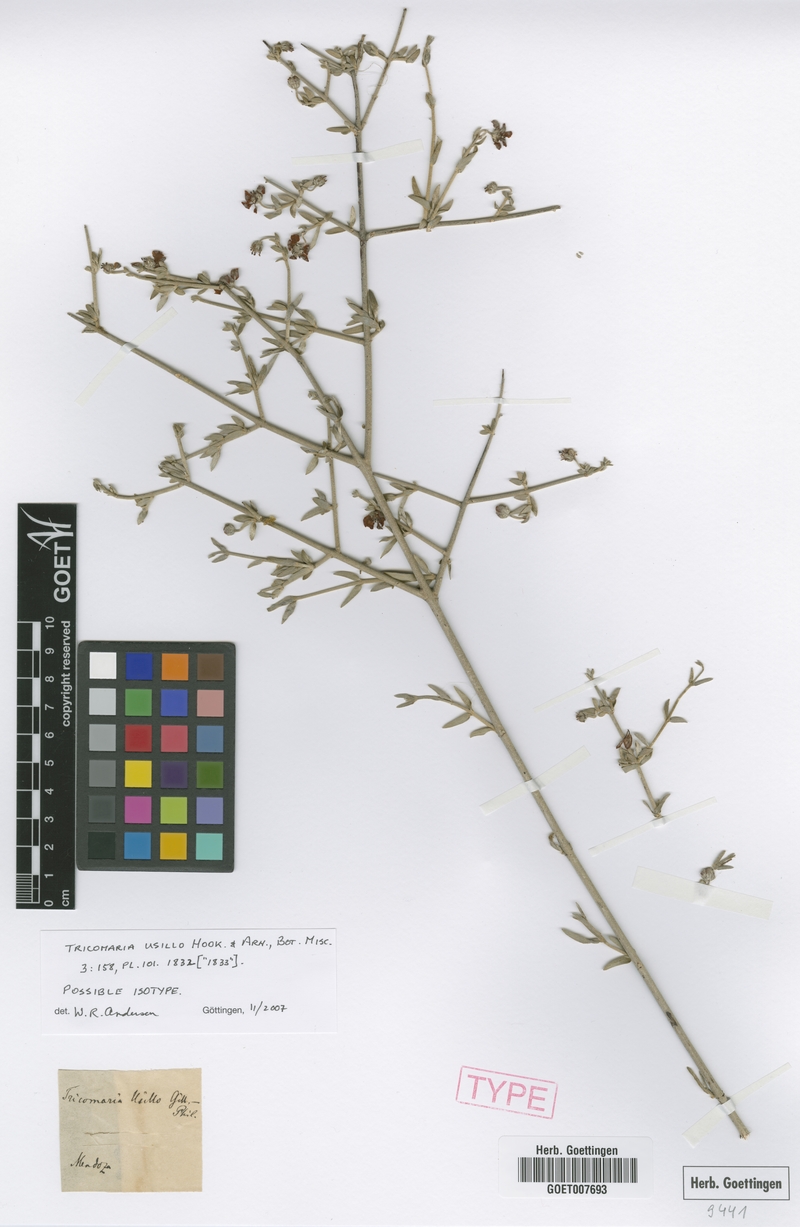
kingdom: Plantae
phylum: Tracheophyta
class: Magnoliopsida
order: Malpighiales
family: Malpighiaceae
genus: Tricomaria
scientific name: Tricomaria usillo
